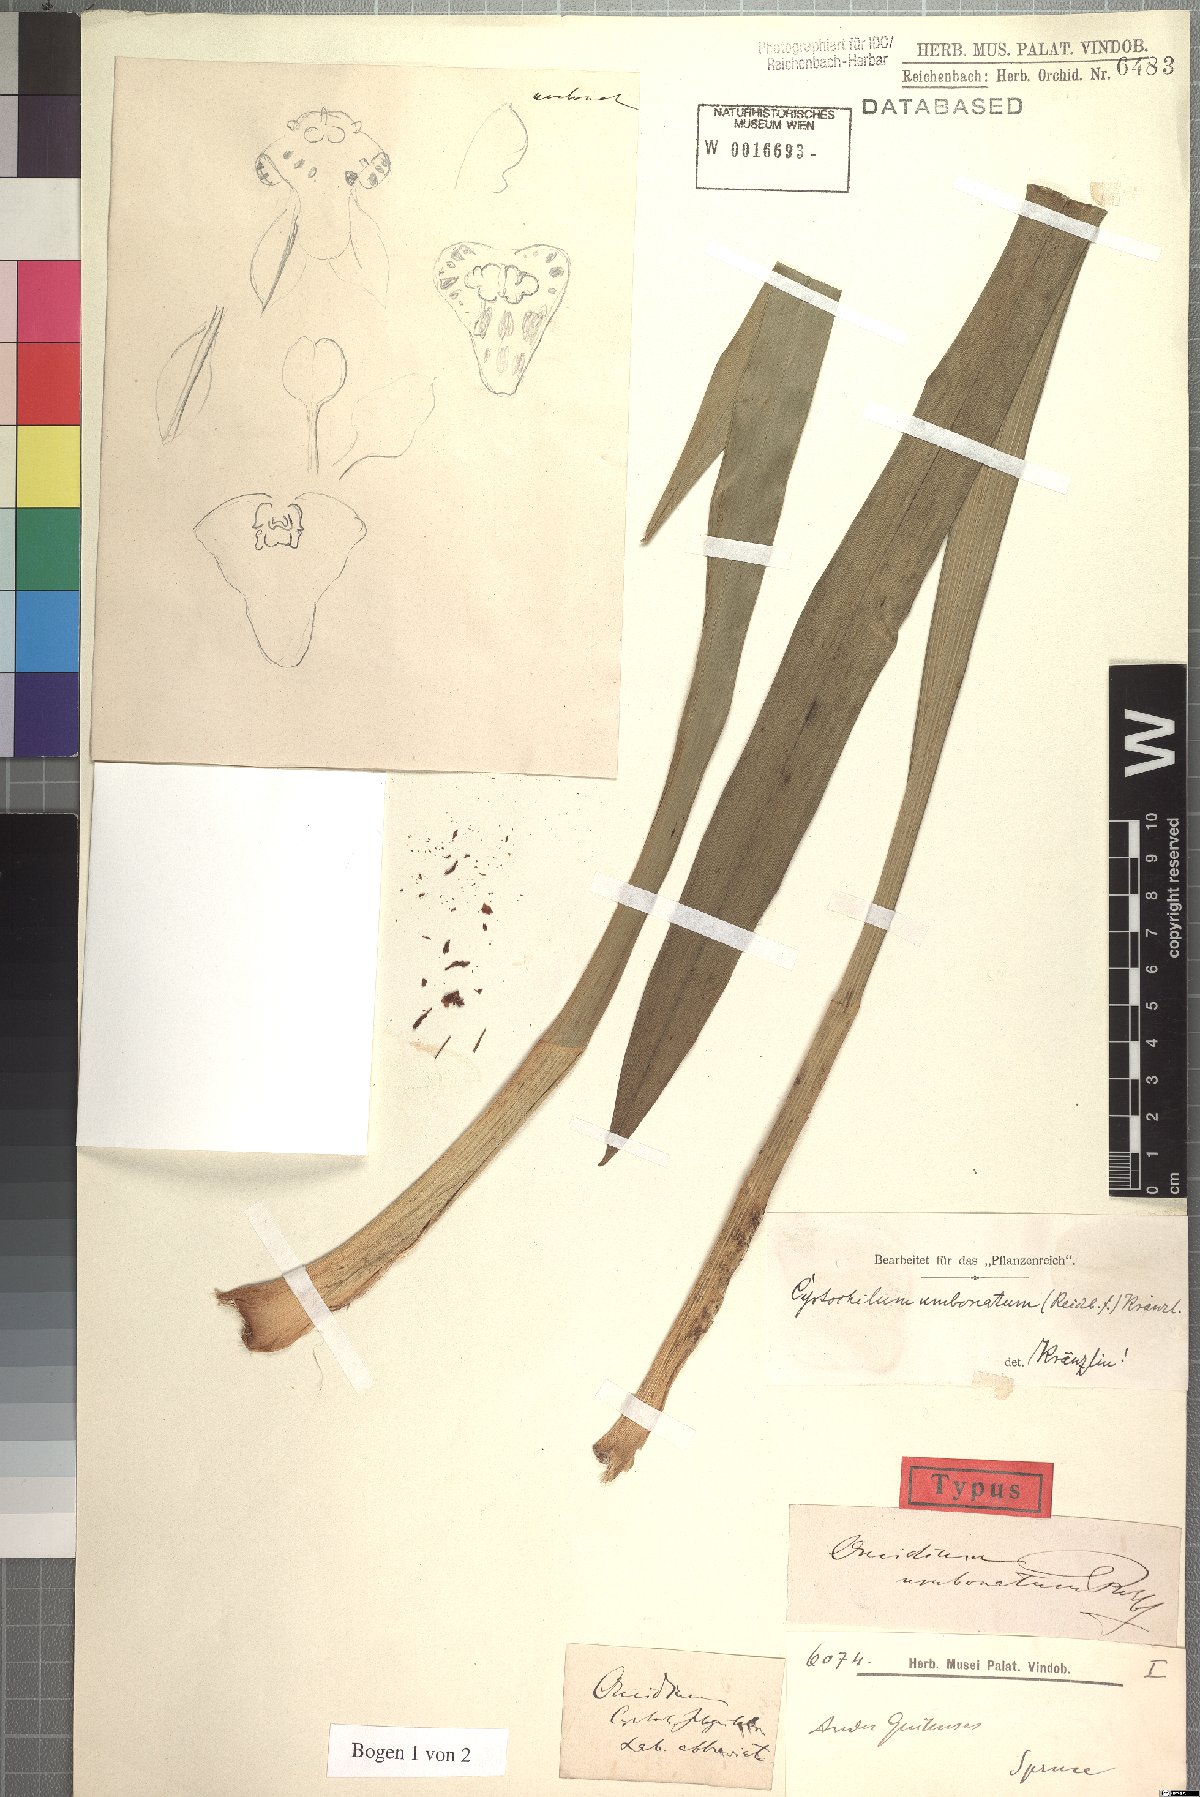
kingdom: Plantae
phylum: Tracheophyta
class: Liliopsida
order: Asparagales
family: Orchidaceae
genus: Cyrtochilum
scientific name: Cyrtochilum umbonatum
